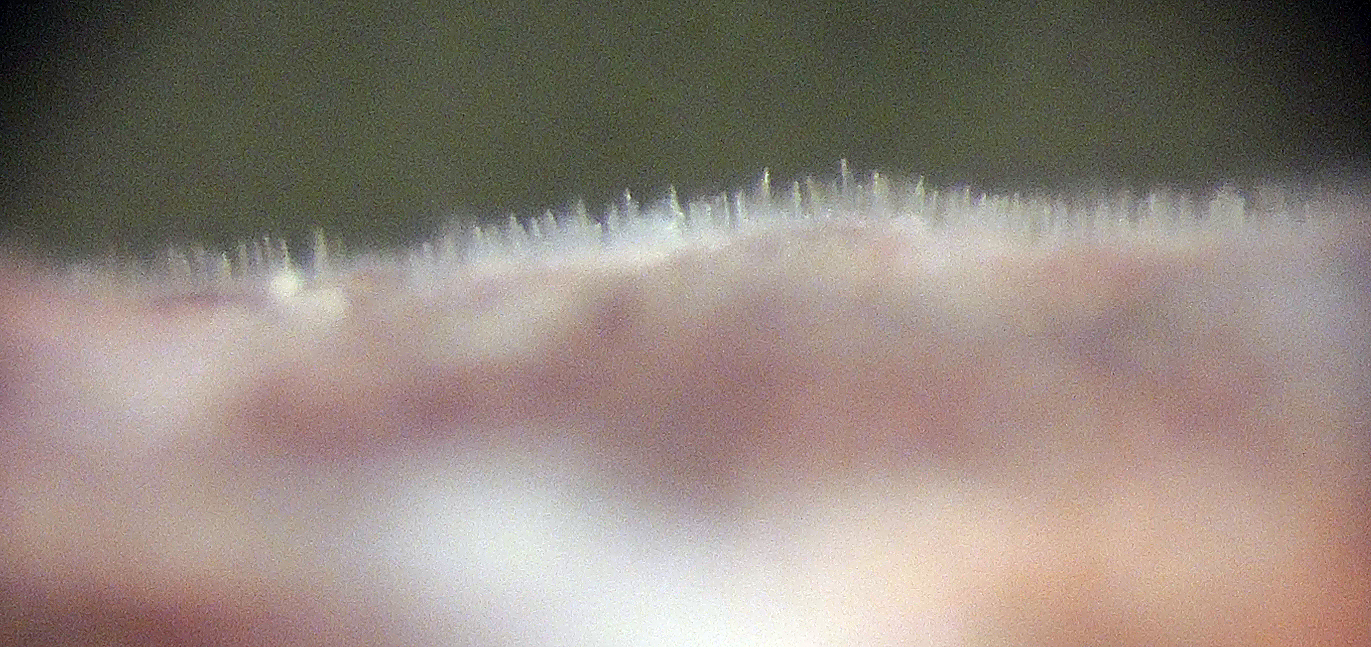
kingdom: Fungi
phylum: Basidiomycota
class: Agaricomycetes
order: Trechisporales
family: Hydnodontaceae
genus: Litschauerella
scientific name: Litschauerella clematidis
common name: kuglesporet slynghinde
